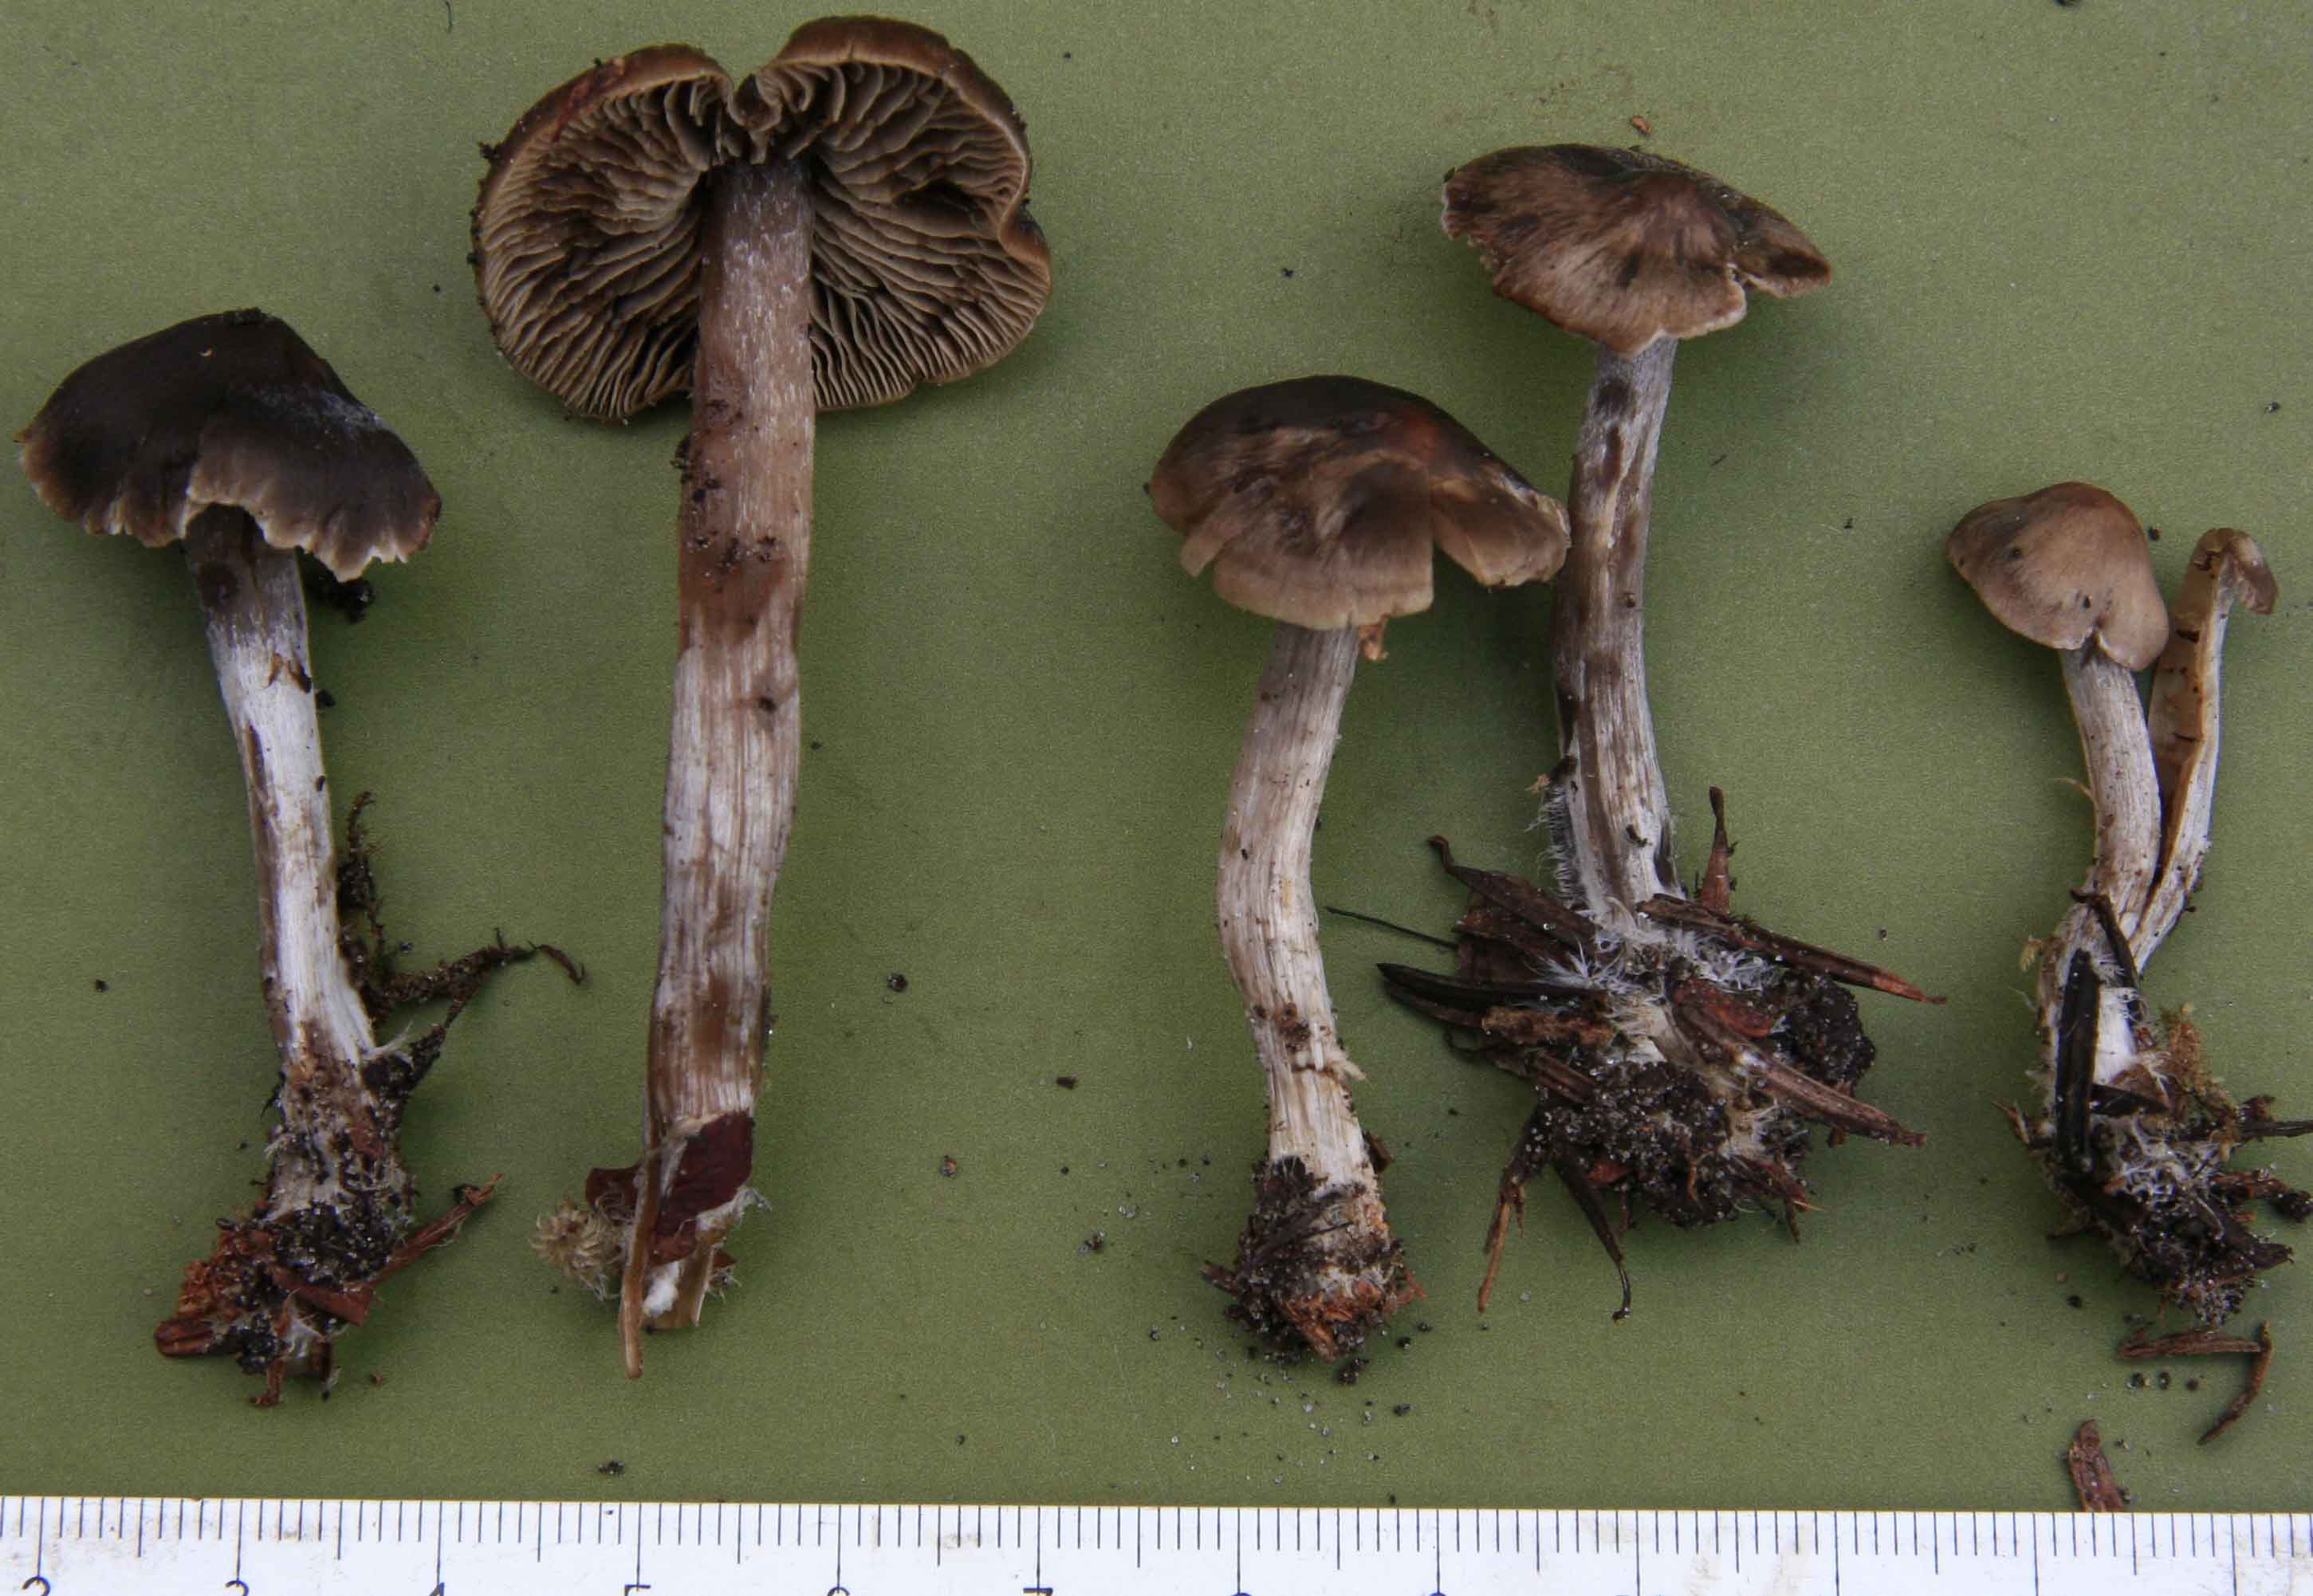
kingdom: Fungi
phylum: Basidiomycota
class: Agaricomycetes
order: Agaricales
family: Lyophyllaceae
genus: Myochromella
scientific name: Myochromella boudieri
